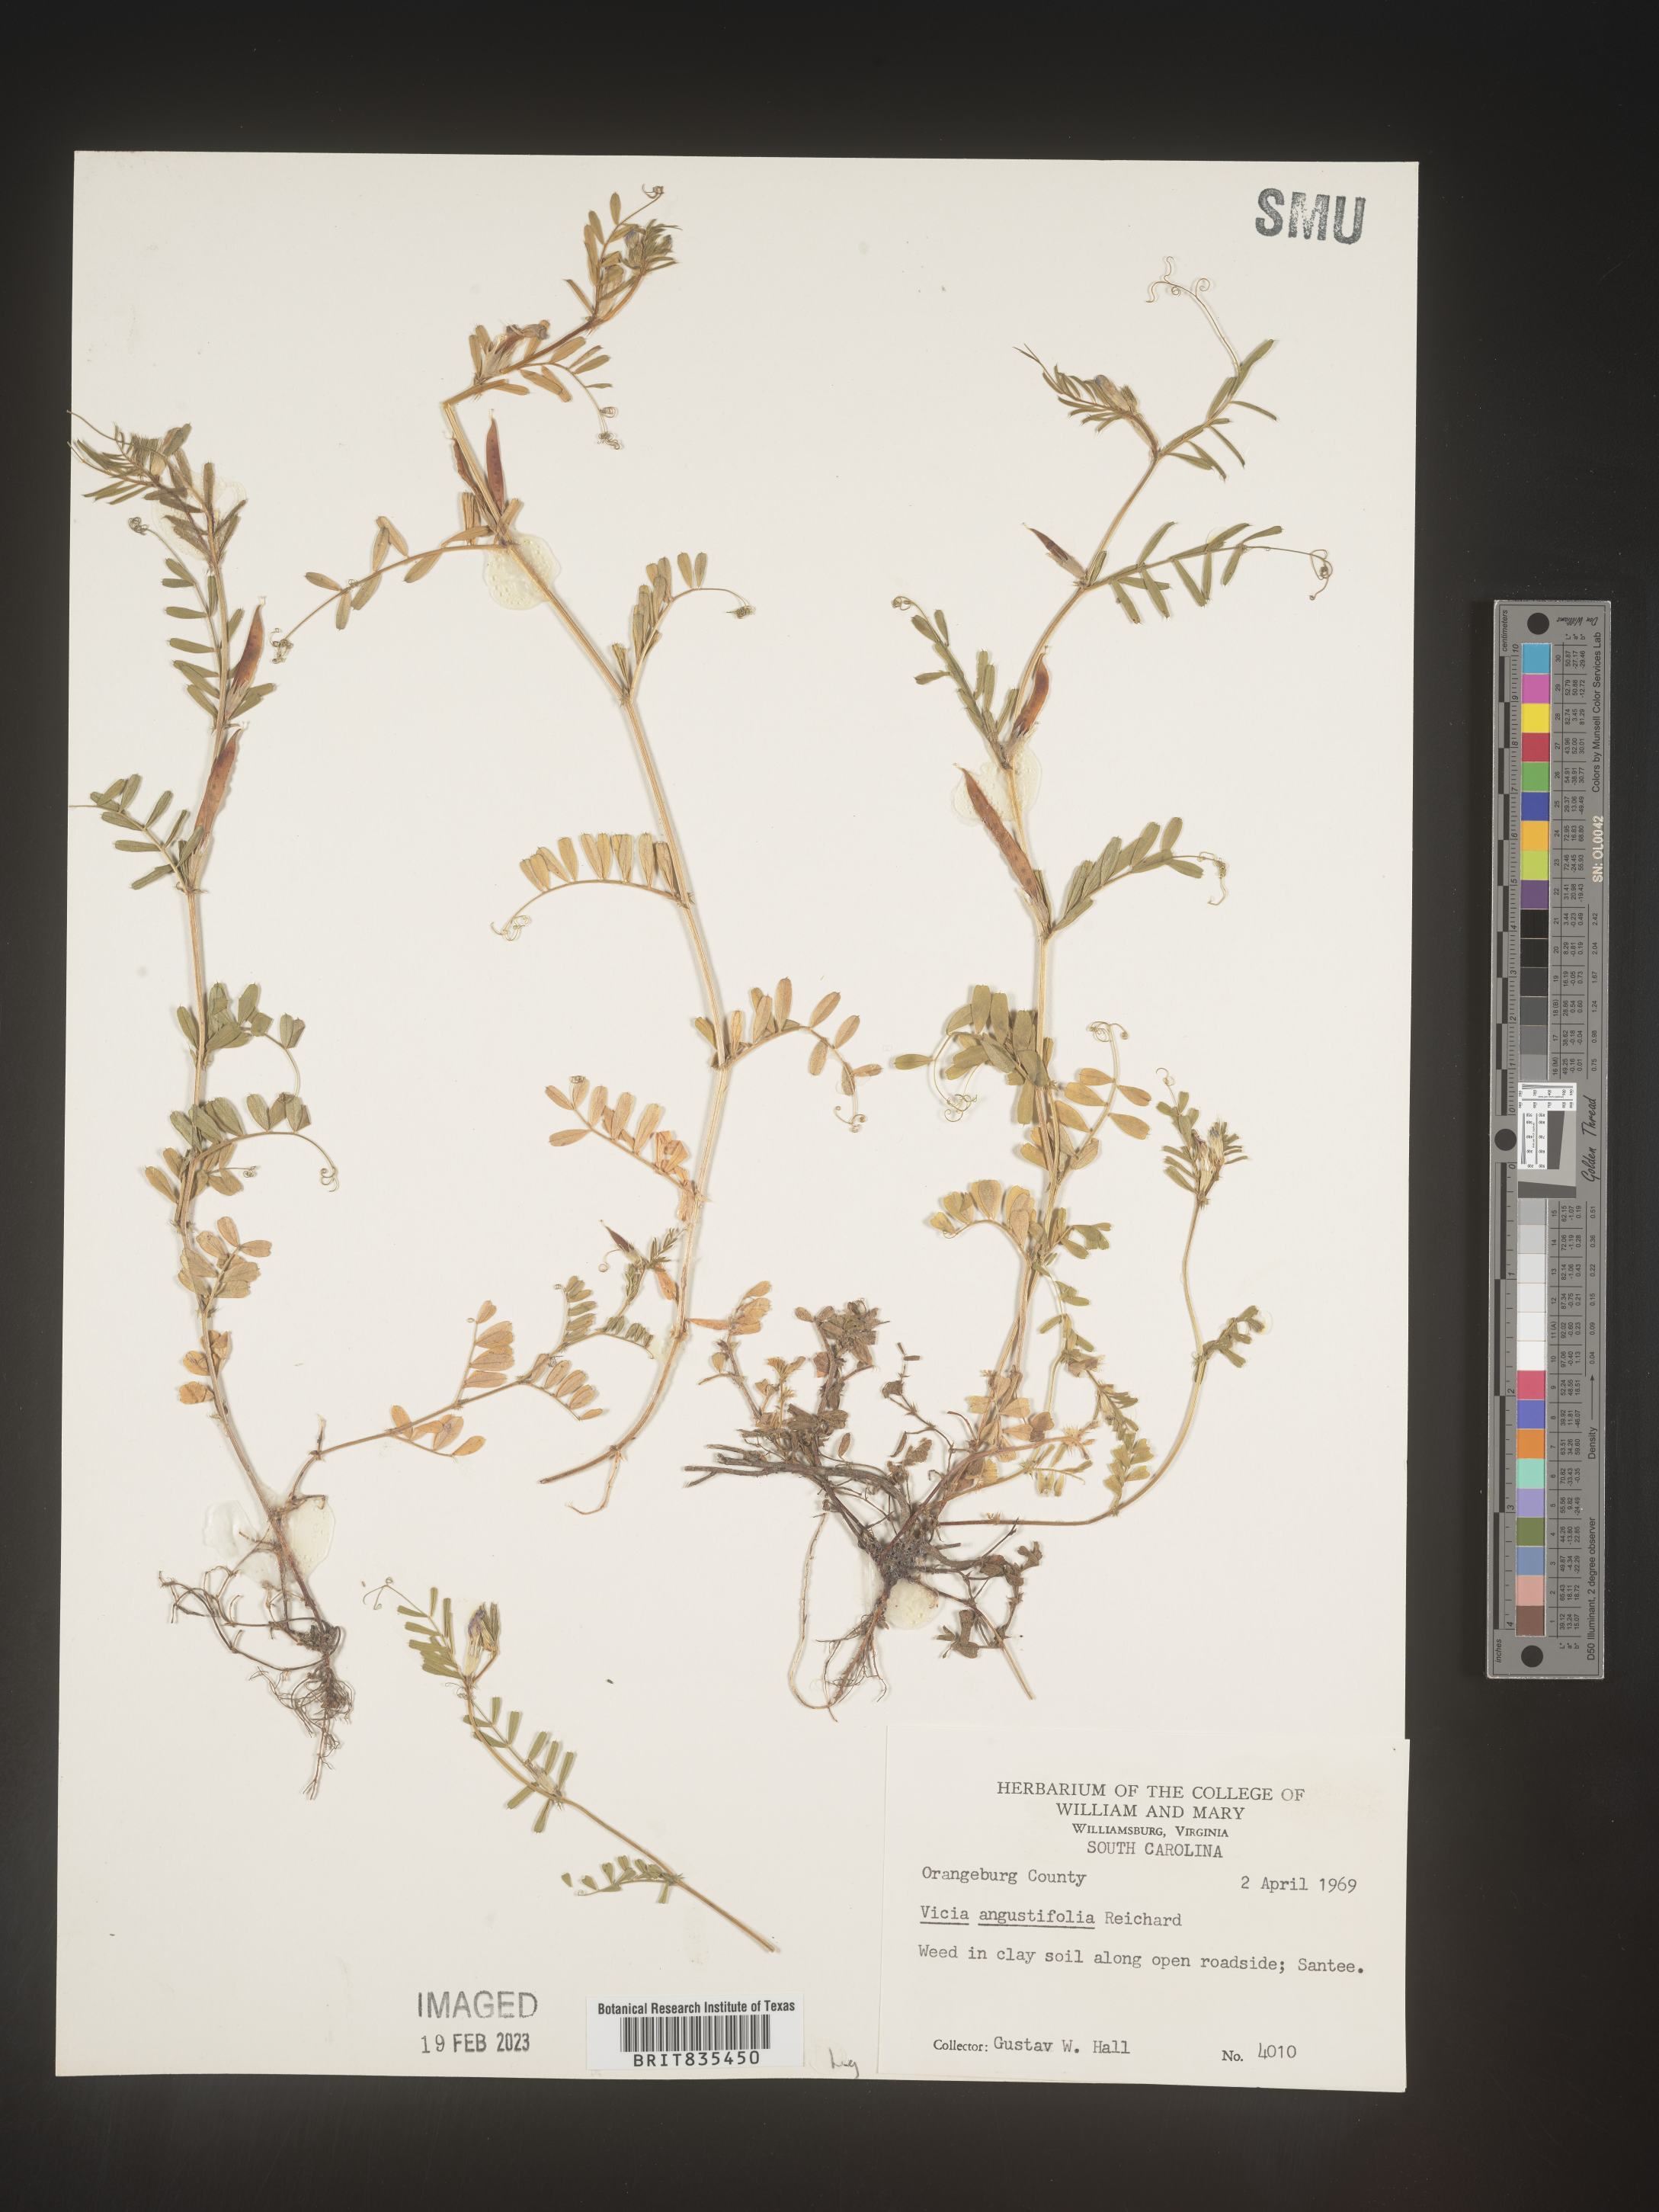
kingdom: Plantae
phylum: Tracheophyta
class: Magnoliopsida
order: Fabales
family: Fabaceae
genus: Vicia
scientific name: Vicia sativa
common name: Garden vetch
